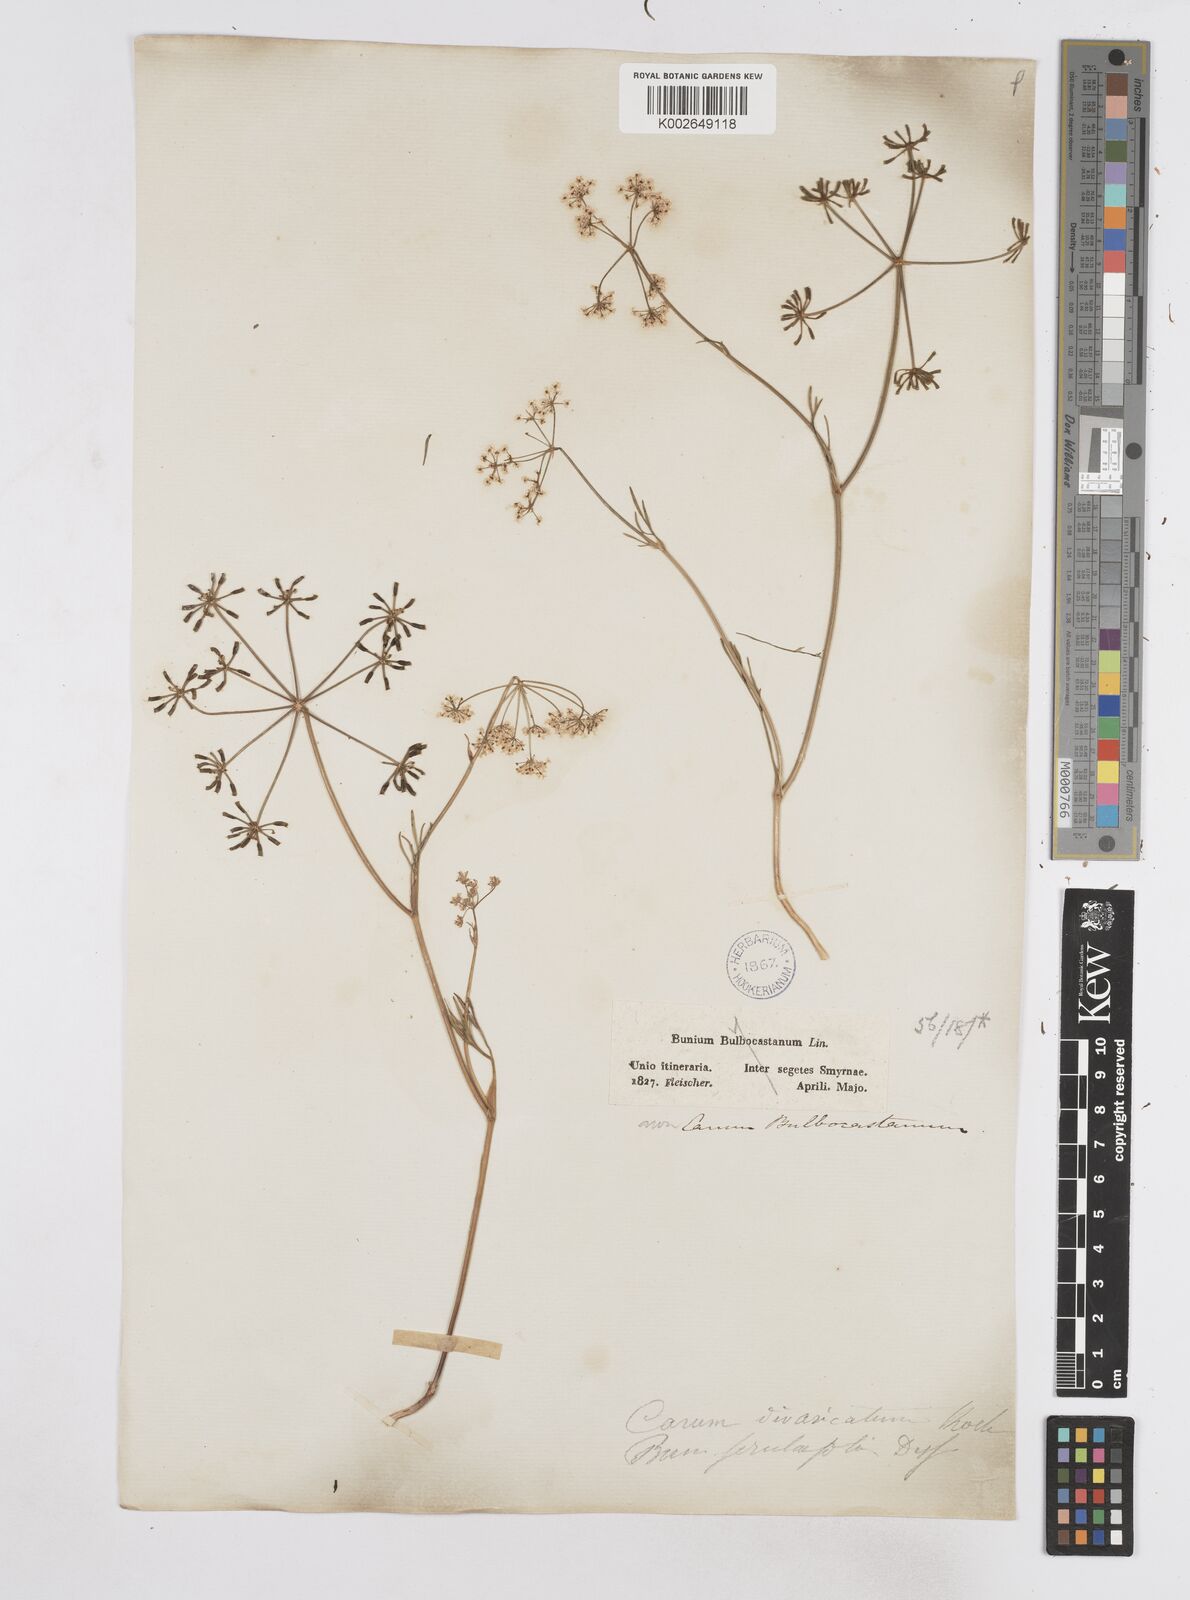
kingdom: Plantae
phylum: Tracheophyta
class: Magnoliopsida
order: Apiales
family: Apiaceae
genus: Bunium
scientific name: Bunium ferulaceum
